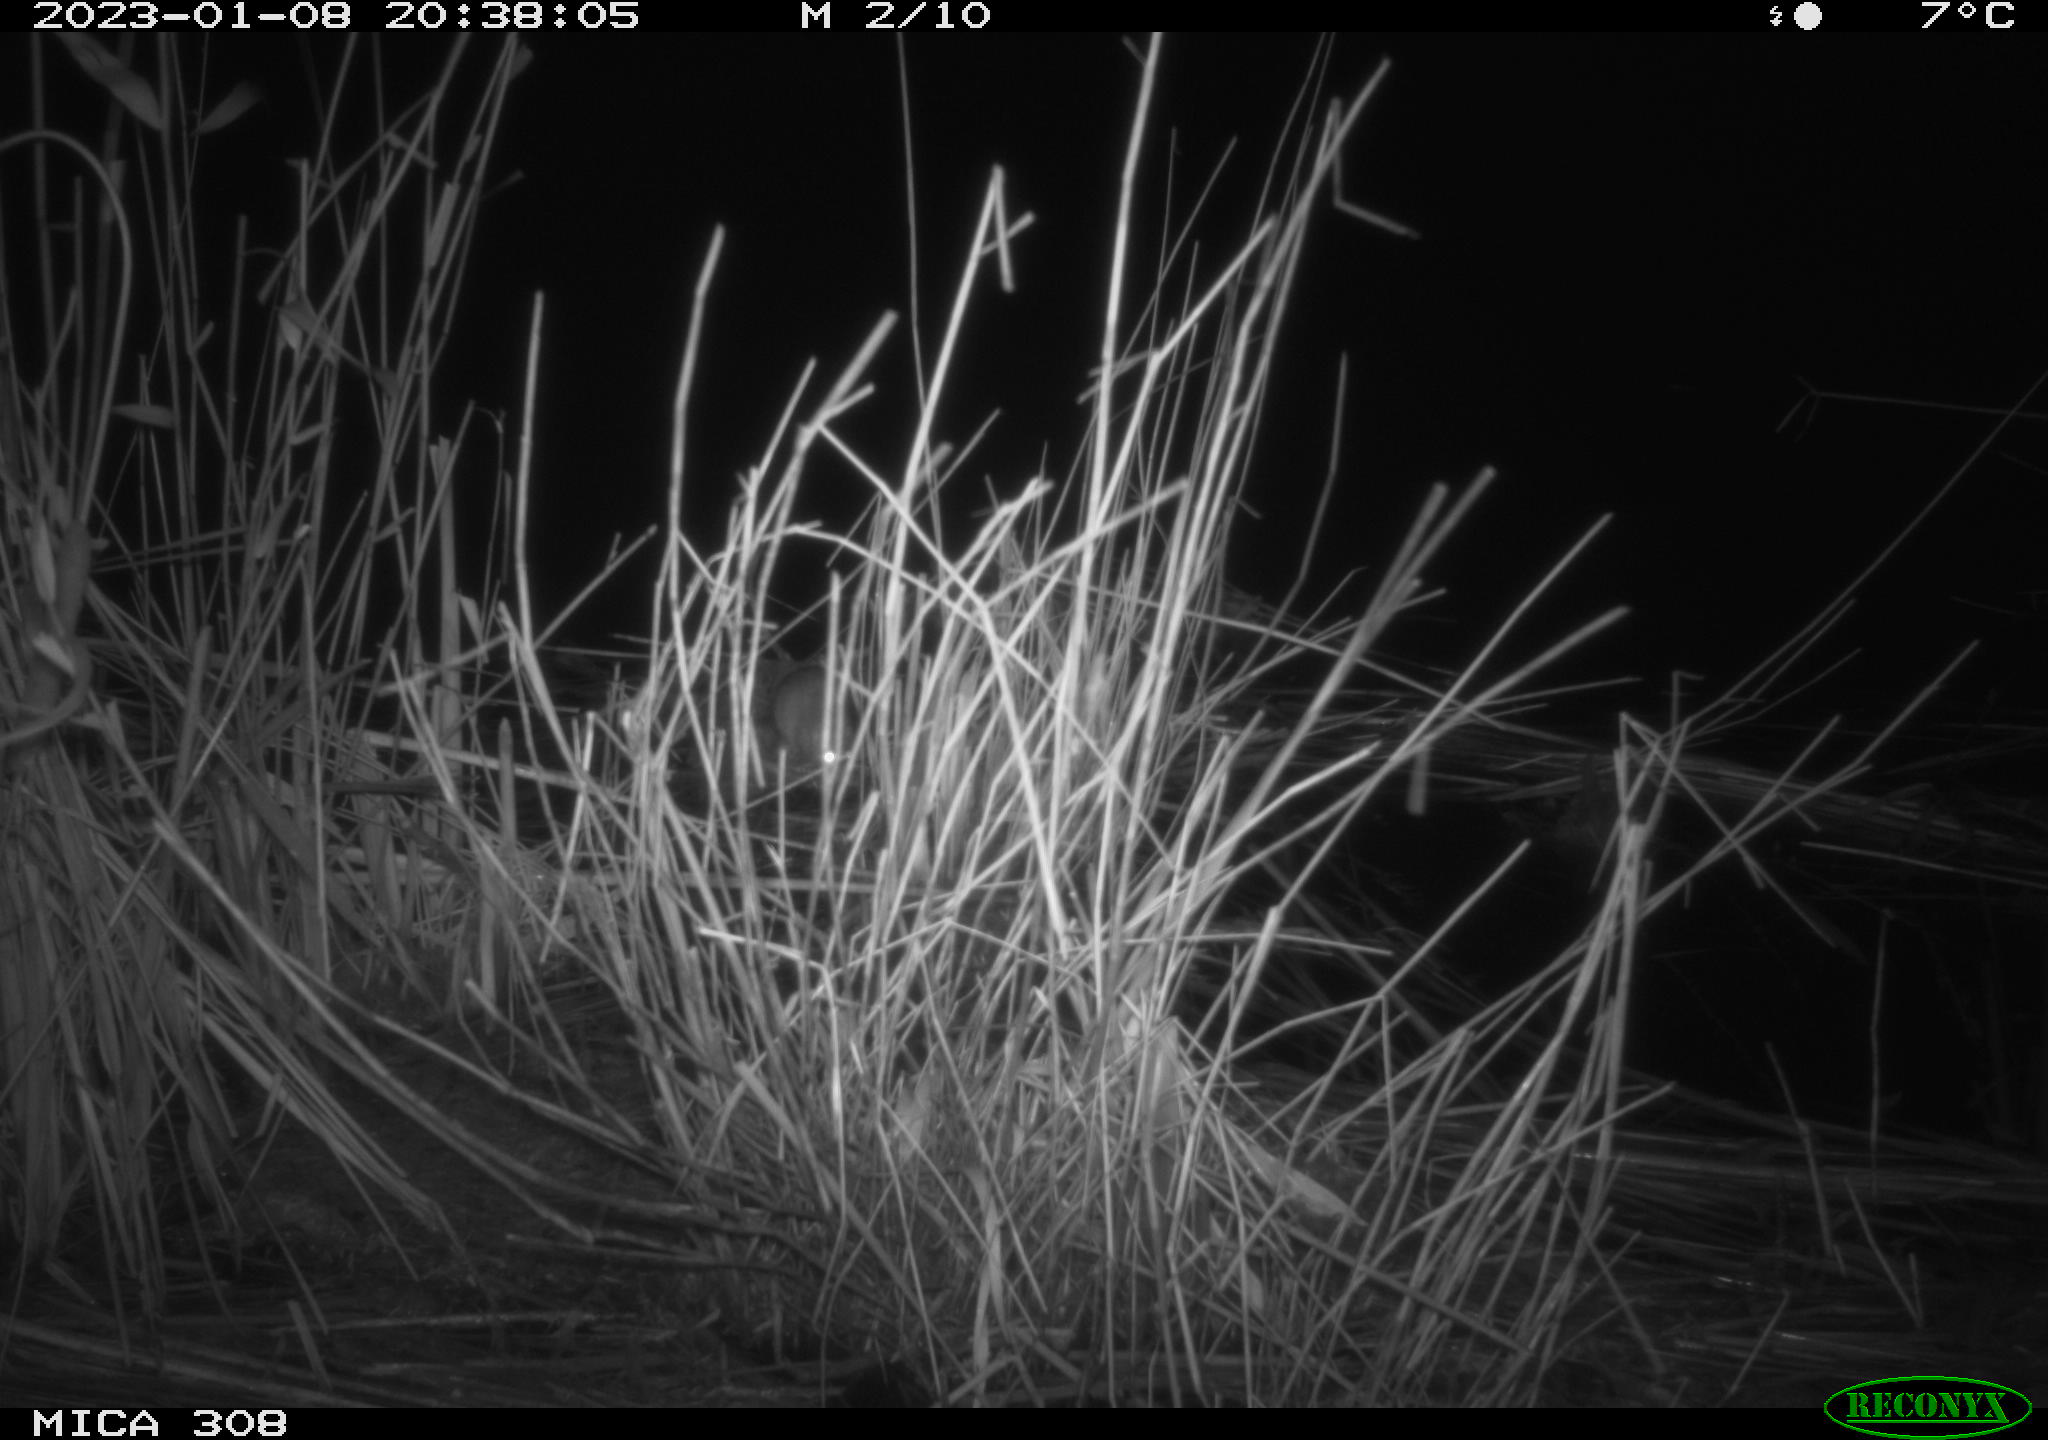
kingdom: Animalia
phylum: Chordata
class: Mammalia
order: Rodentia
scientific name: Rodentia
